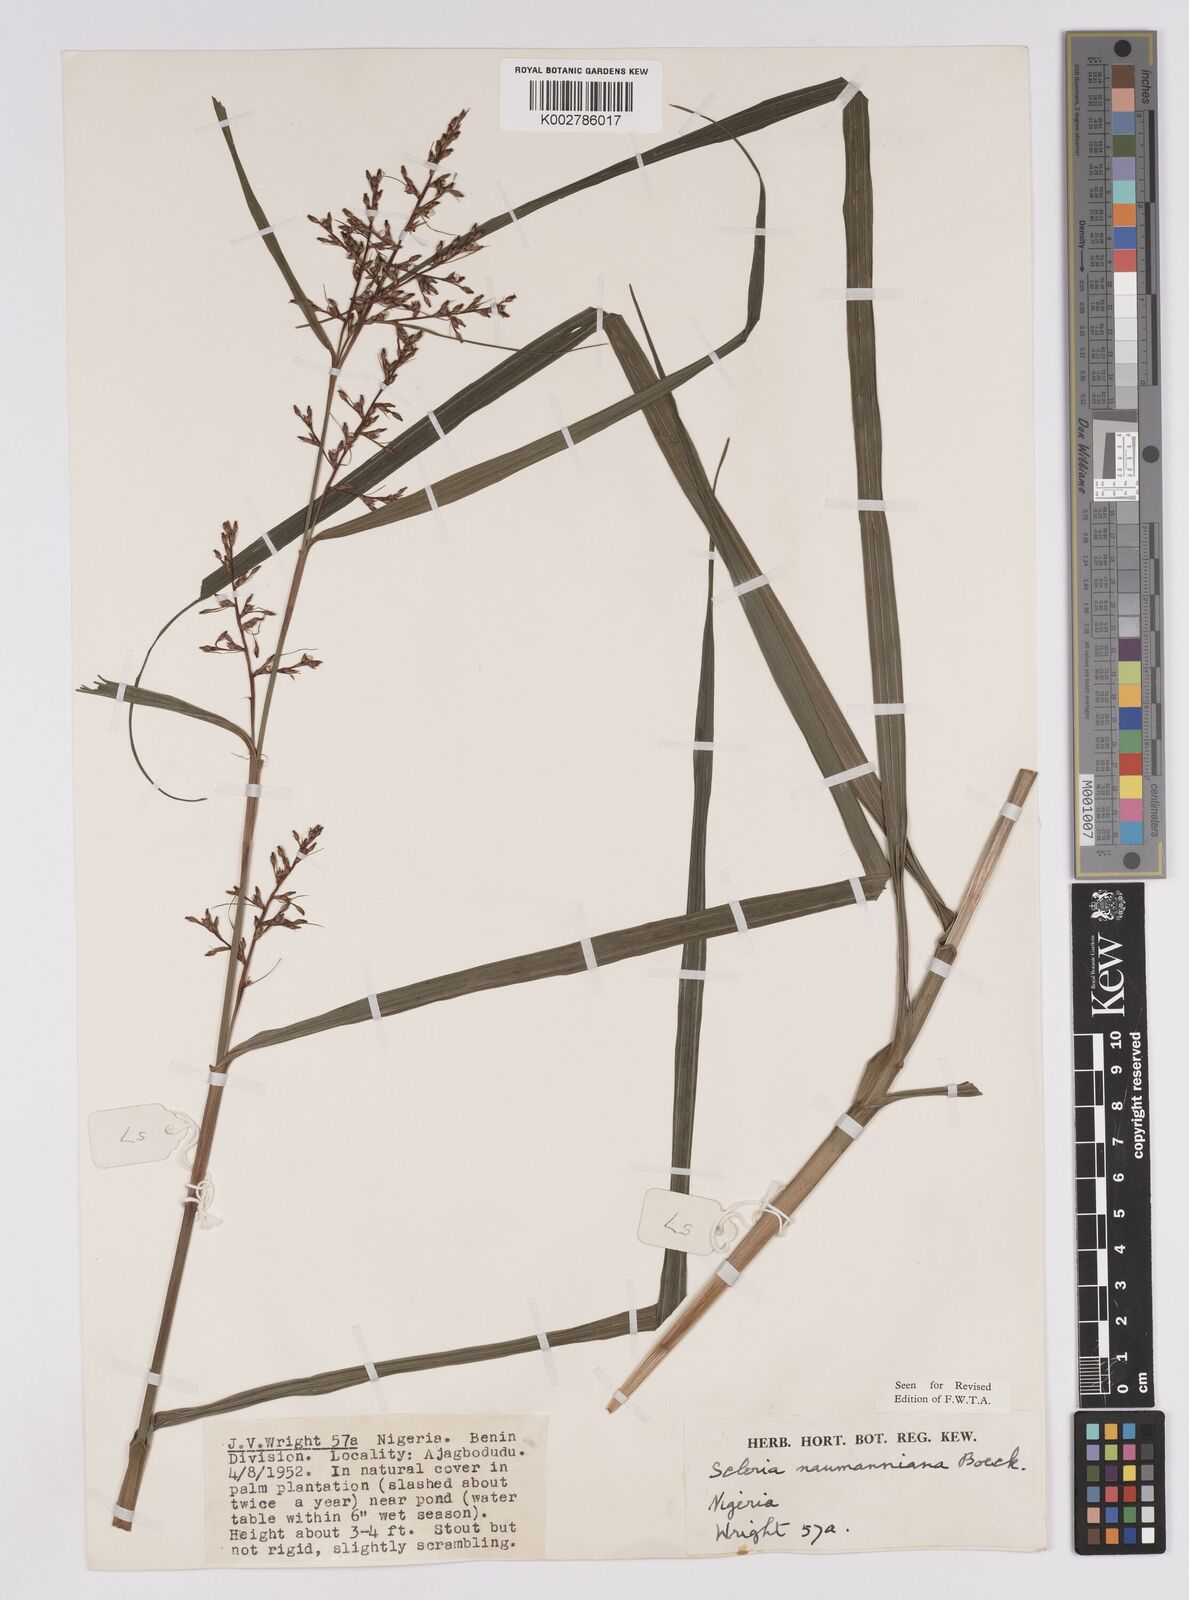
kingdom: Plantae
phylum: Tracheophyta
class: Liliopsida
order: Poales
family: Cyperaceae
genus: Scleria
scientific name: Scleria naumanniana
